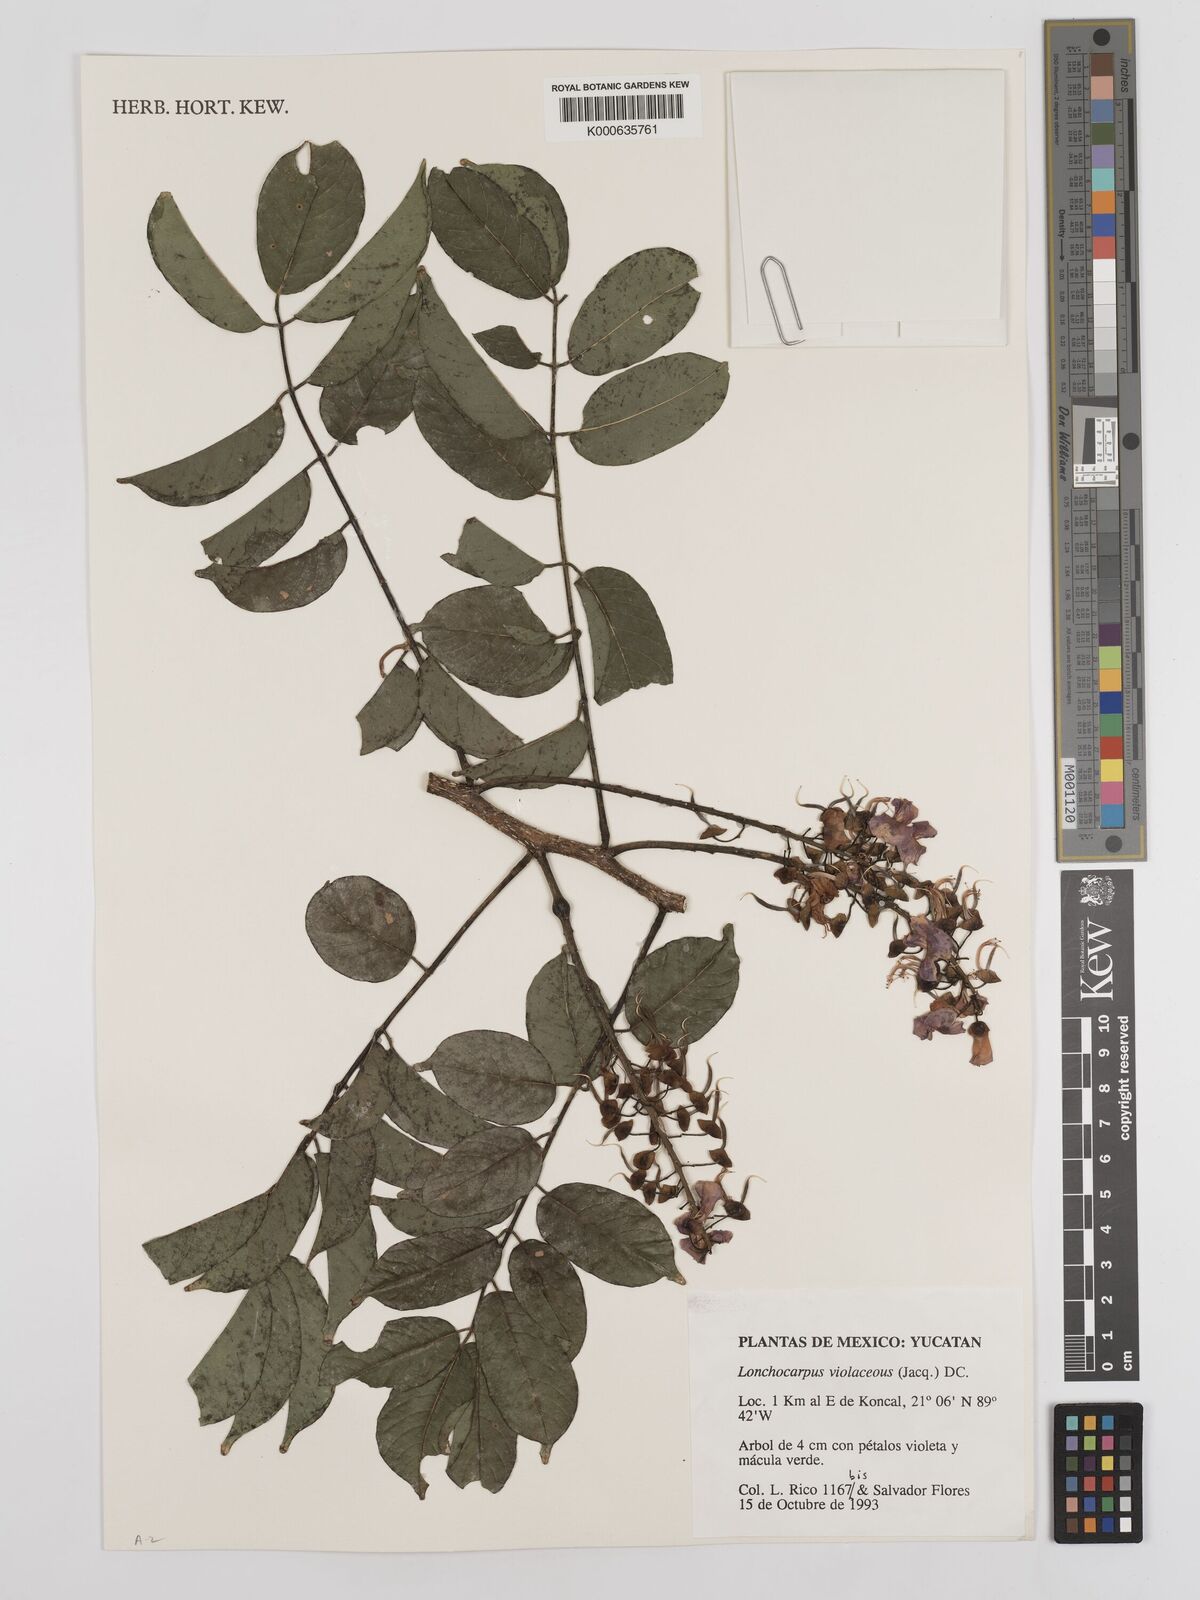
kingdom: Plantae
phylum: Tracheophyta
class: Magnoliopsida
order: Fabales
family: Fabaceae
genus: Lonchocarpus
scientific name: Lonchocarpus
